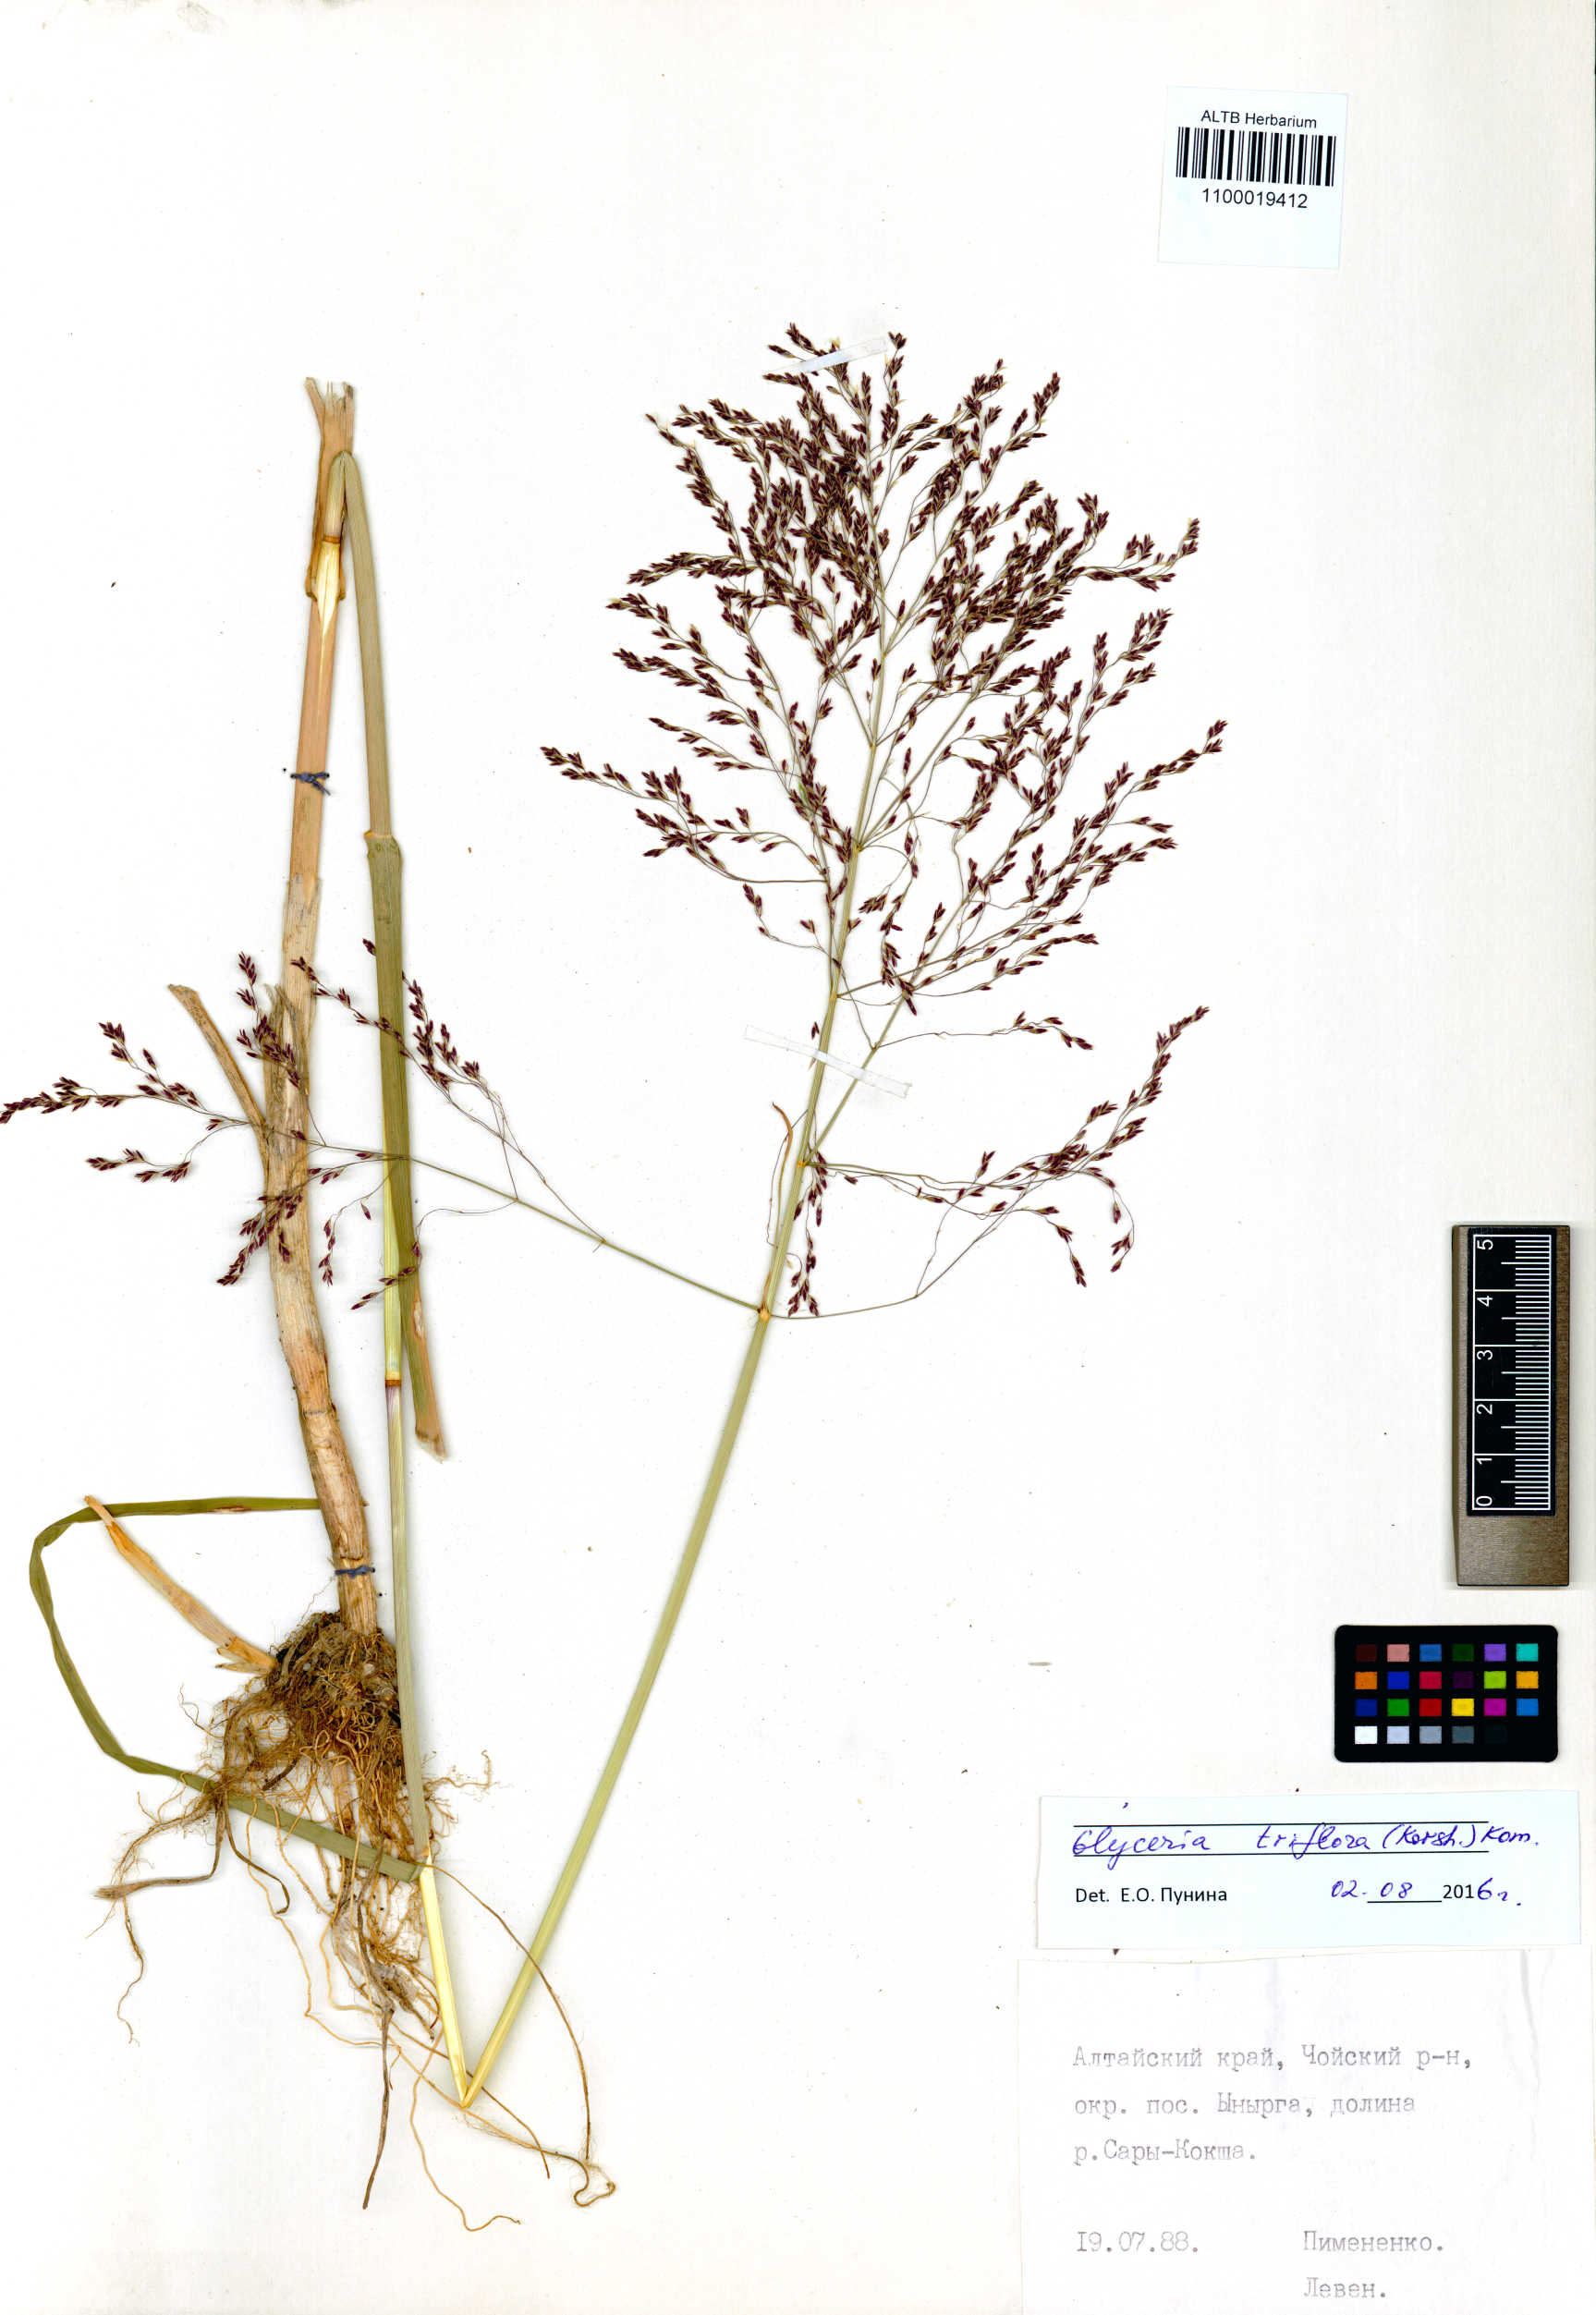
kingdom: Plantae
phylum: Tracheophyta
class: Liliopsida
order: Poales
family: Poaceae
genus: Glyceria
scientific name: Glyceria lithuanica
